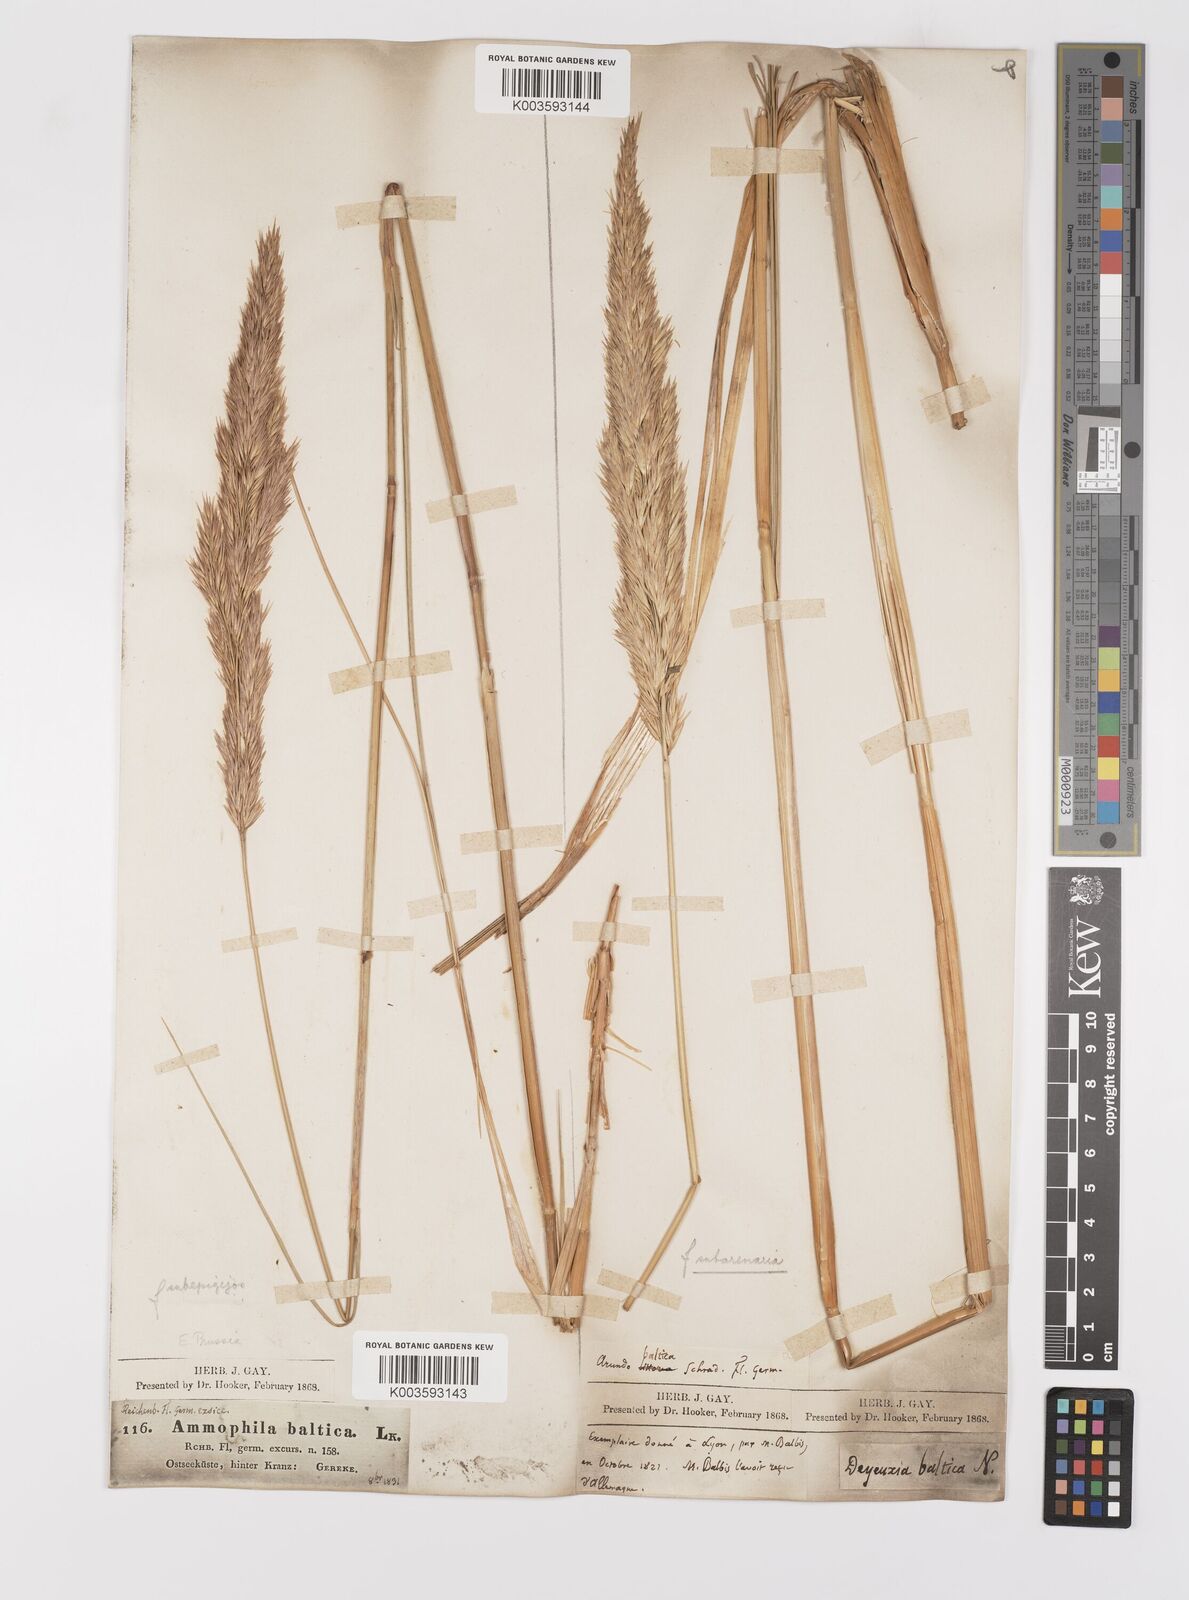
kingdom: Plantae
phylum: Tracheophyta
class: Liliopsida
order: Poales
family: Poaceae
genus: Calamagrostis
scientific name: Calamagrostis baltica
